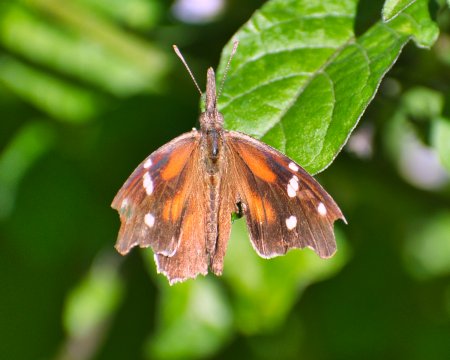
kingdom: Animalia
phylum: Arthropoda
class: Insecta
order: Lepidoptera
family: Nymphalidae
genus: Libytheana
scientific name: Libytheana carinenta
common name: American Snout
